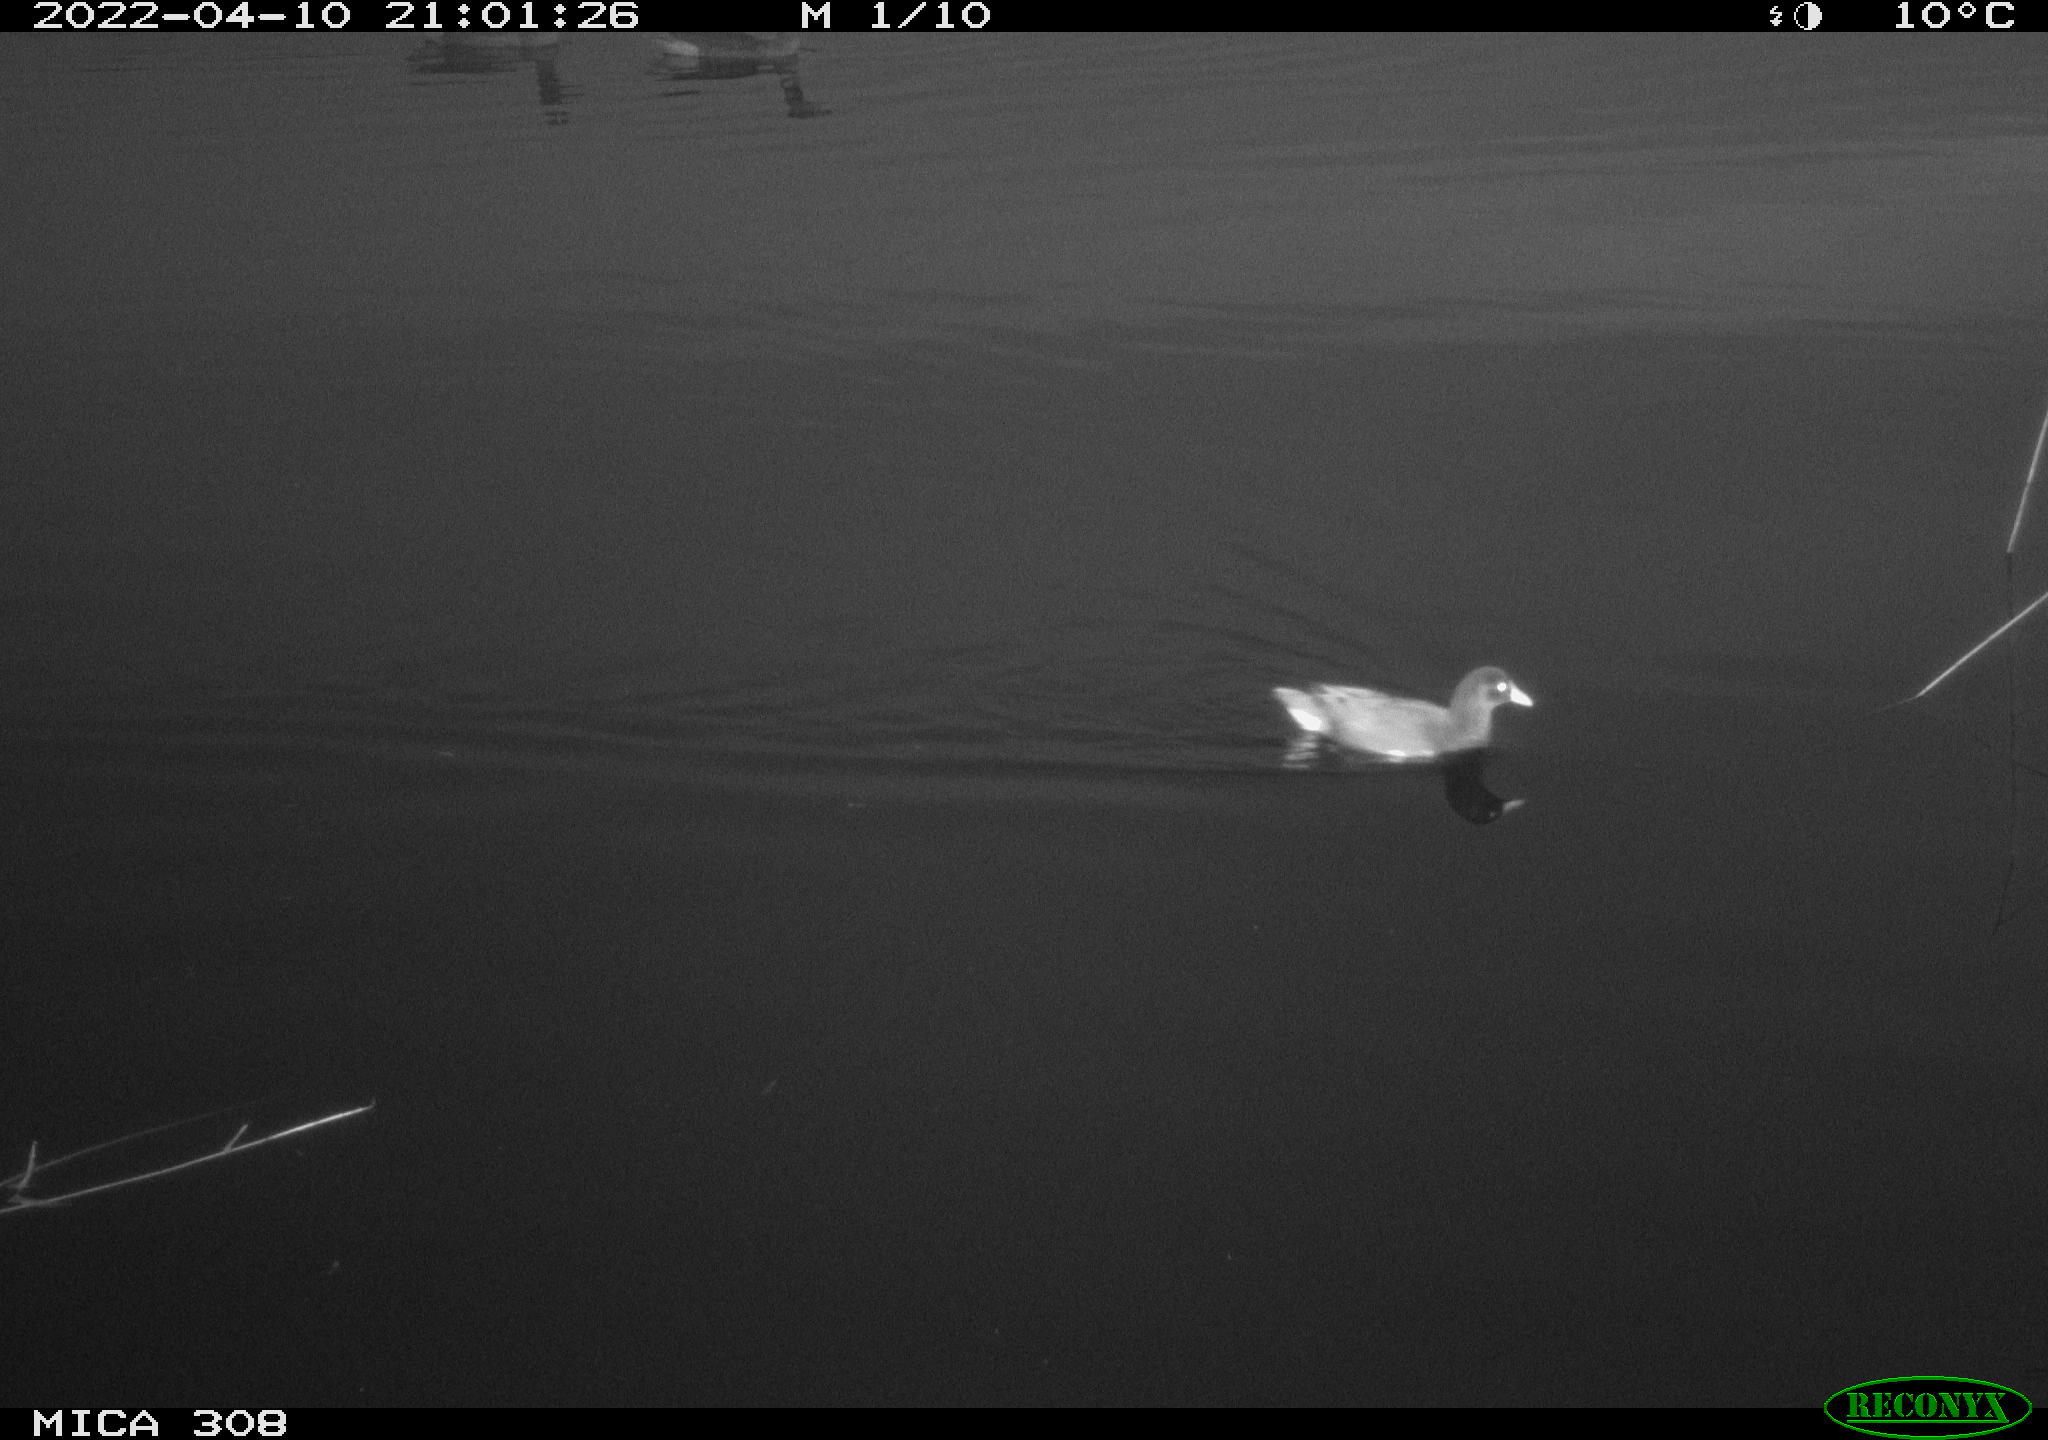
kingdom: Animalia
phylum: Chordata
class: Aves
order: Gruiformes
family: Rallidae
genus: Gallinula
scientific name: Gallinula chloropus
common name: Common moorhen
